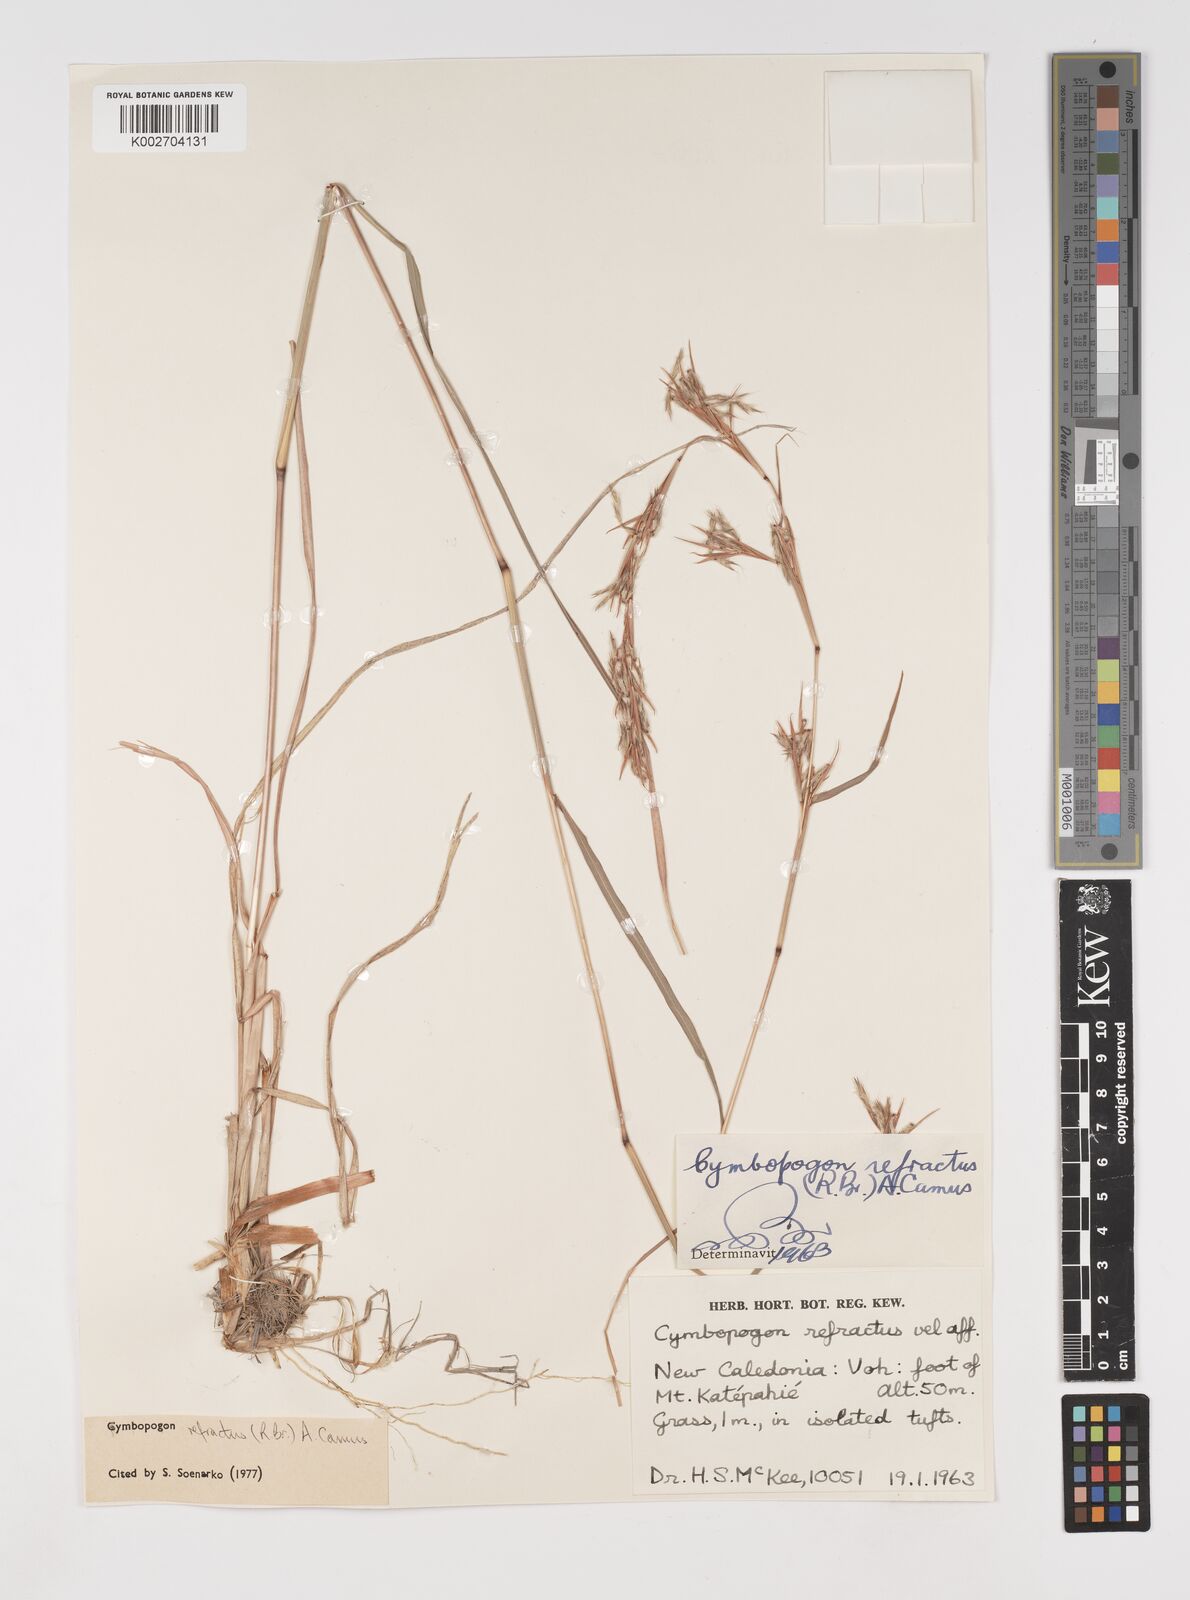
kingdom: Plantae
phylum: Tracheophyta
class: Liliopsida
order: Poales
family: Poaceae
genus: Cymbopogon
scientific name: Cymbopogon refractus
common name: Barbwire grass
